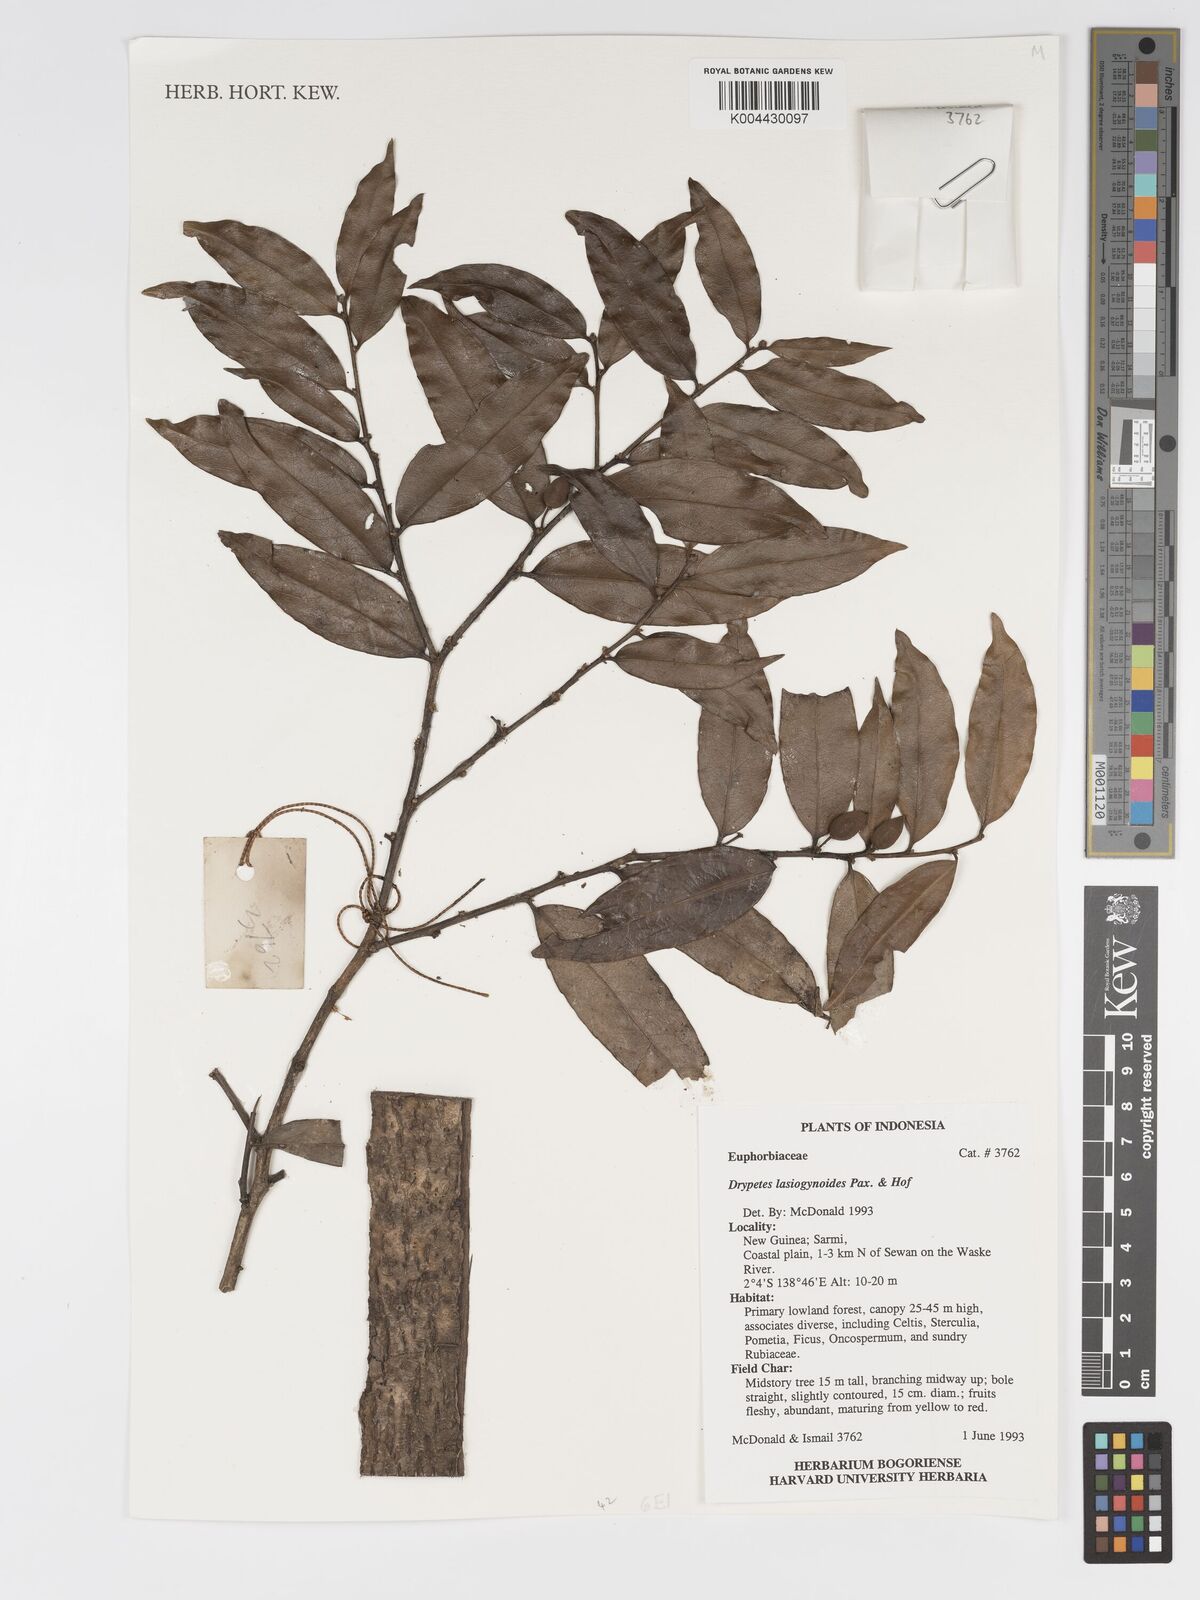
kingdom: Plantae
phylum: Tracheophyta
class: Magnoliopsida
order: Malpighiales
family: Putranjivaceae
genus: Drypetes
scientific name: Drypetes lasiogynoides
